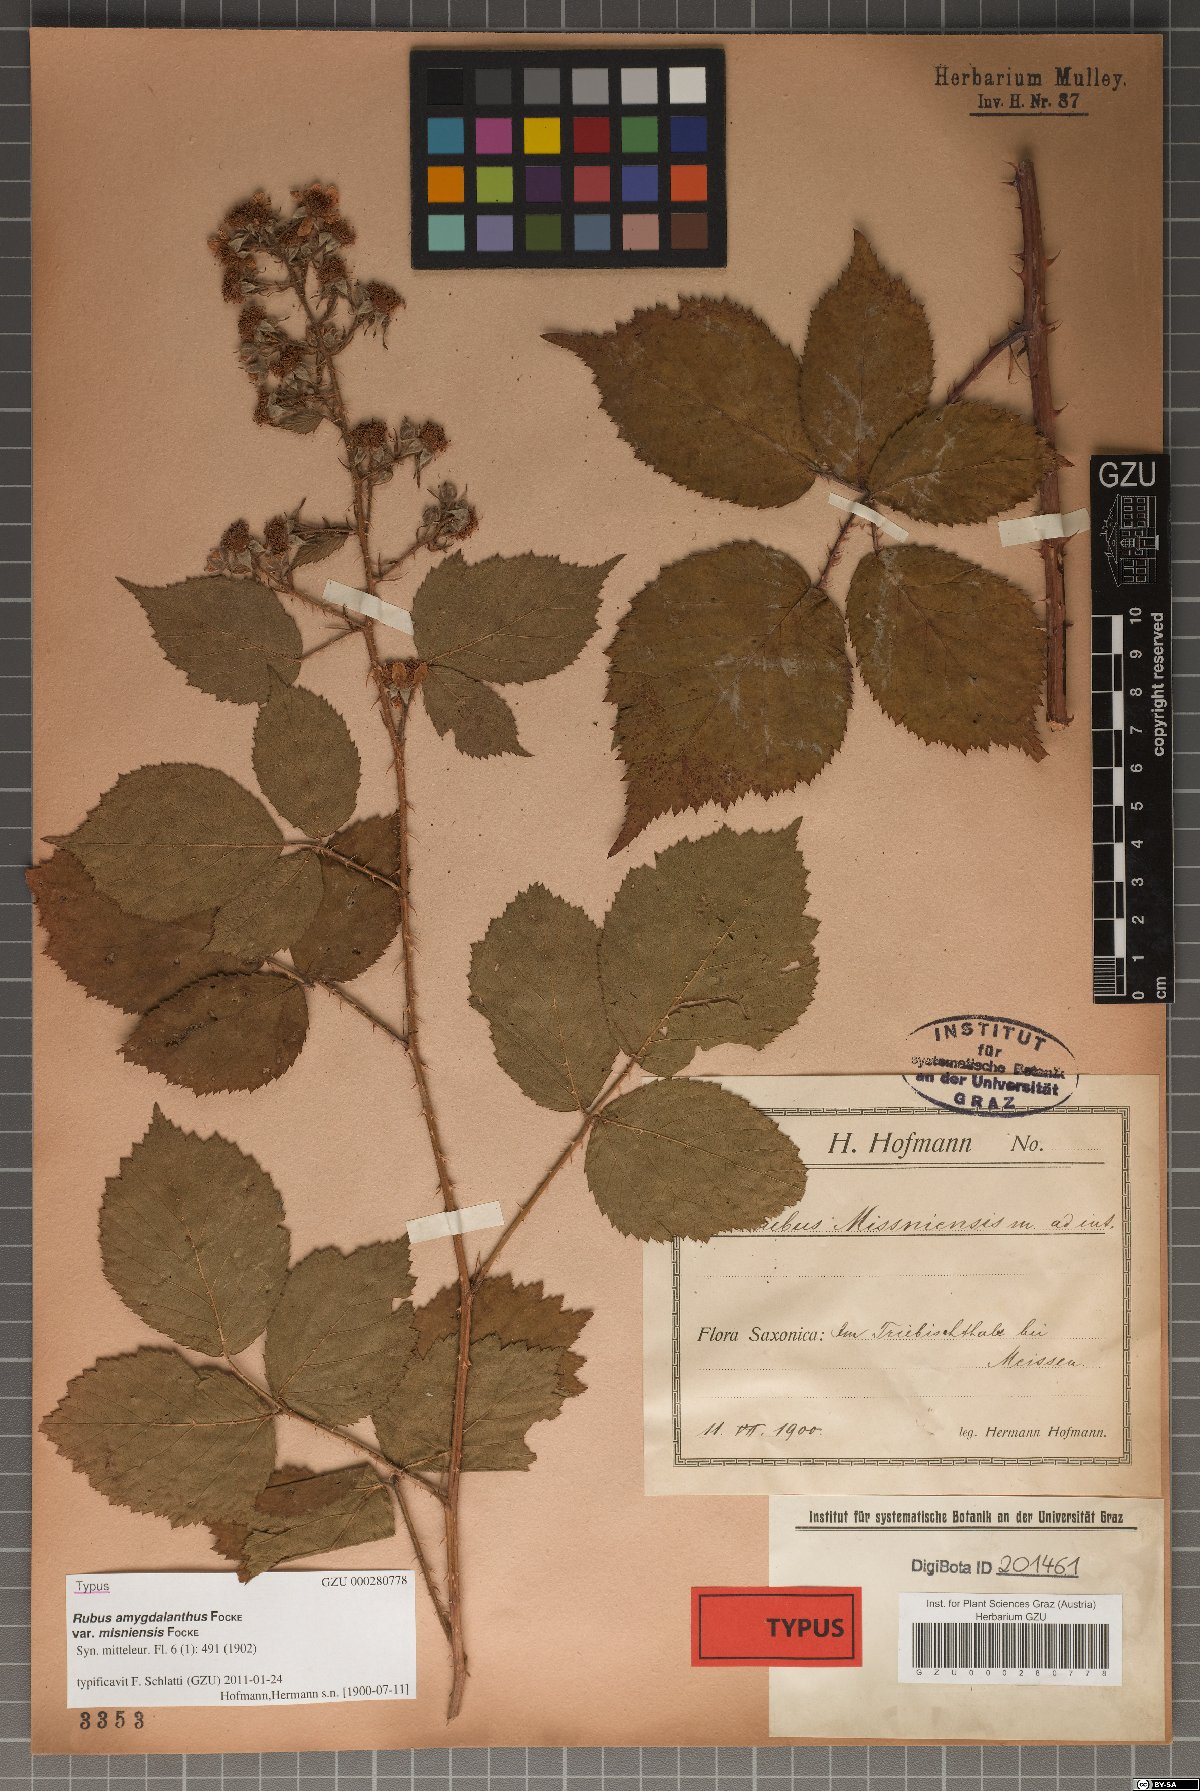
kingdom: Plantae
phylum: Tracheophyta
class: Magnoliopsida
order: Rosales
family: Rosaceae
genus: Rubus
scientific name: Rubus amygdalanthus
